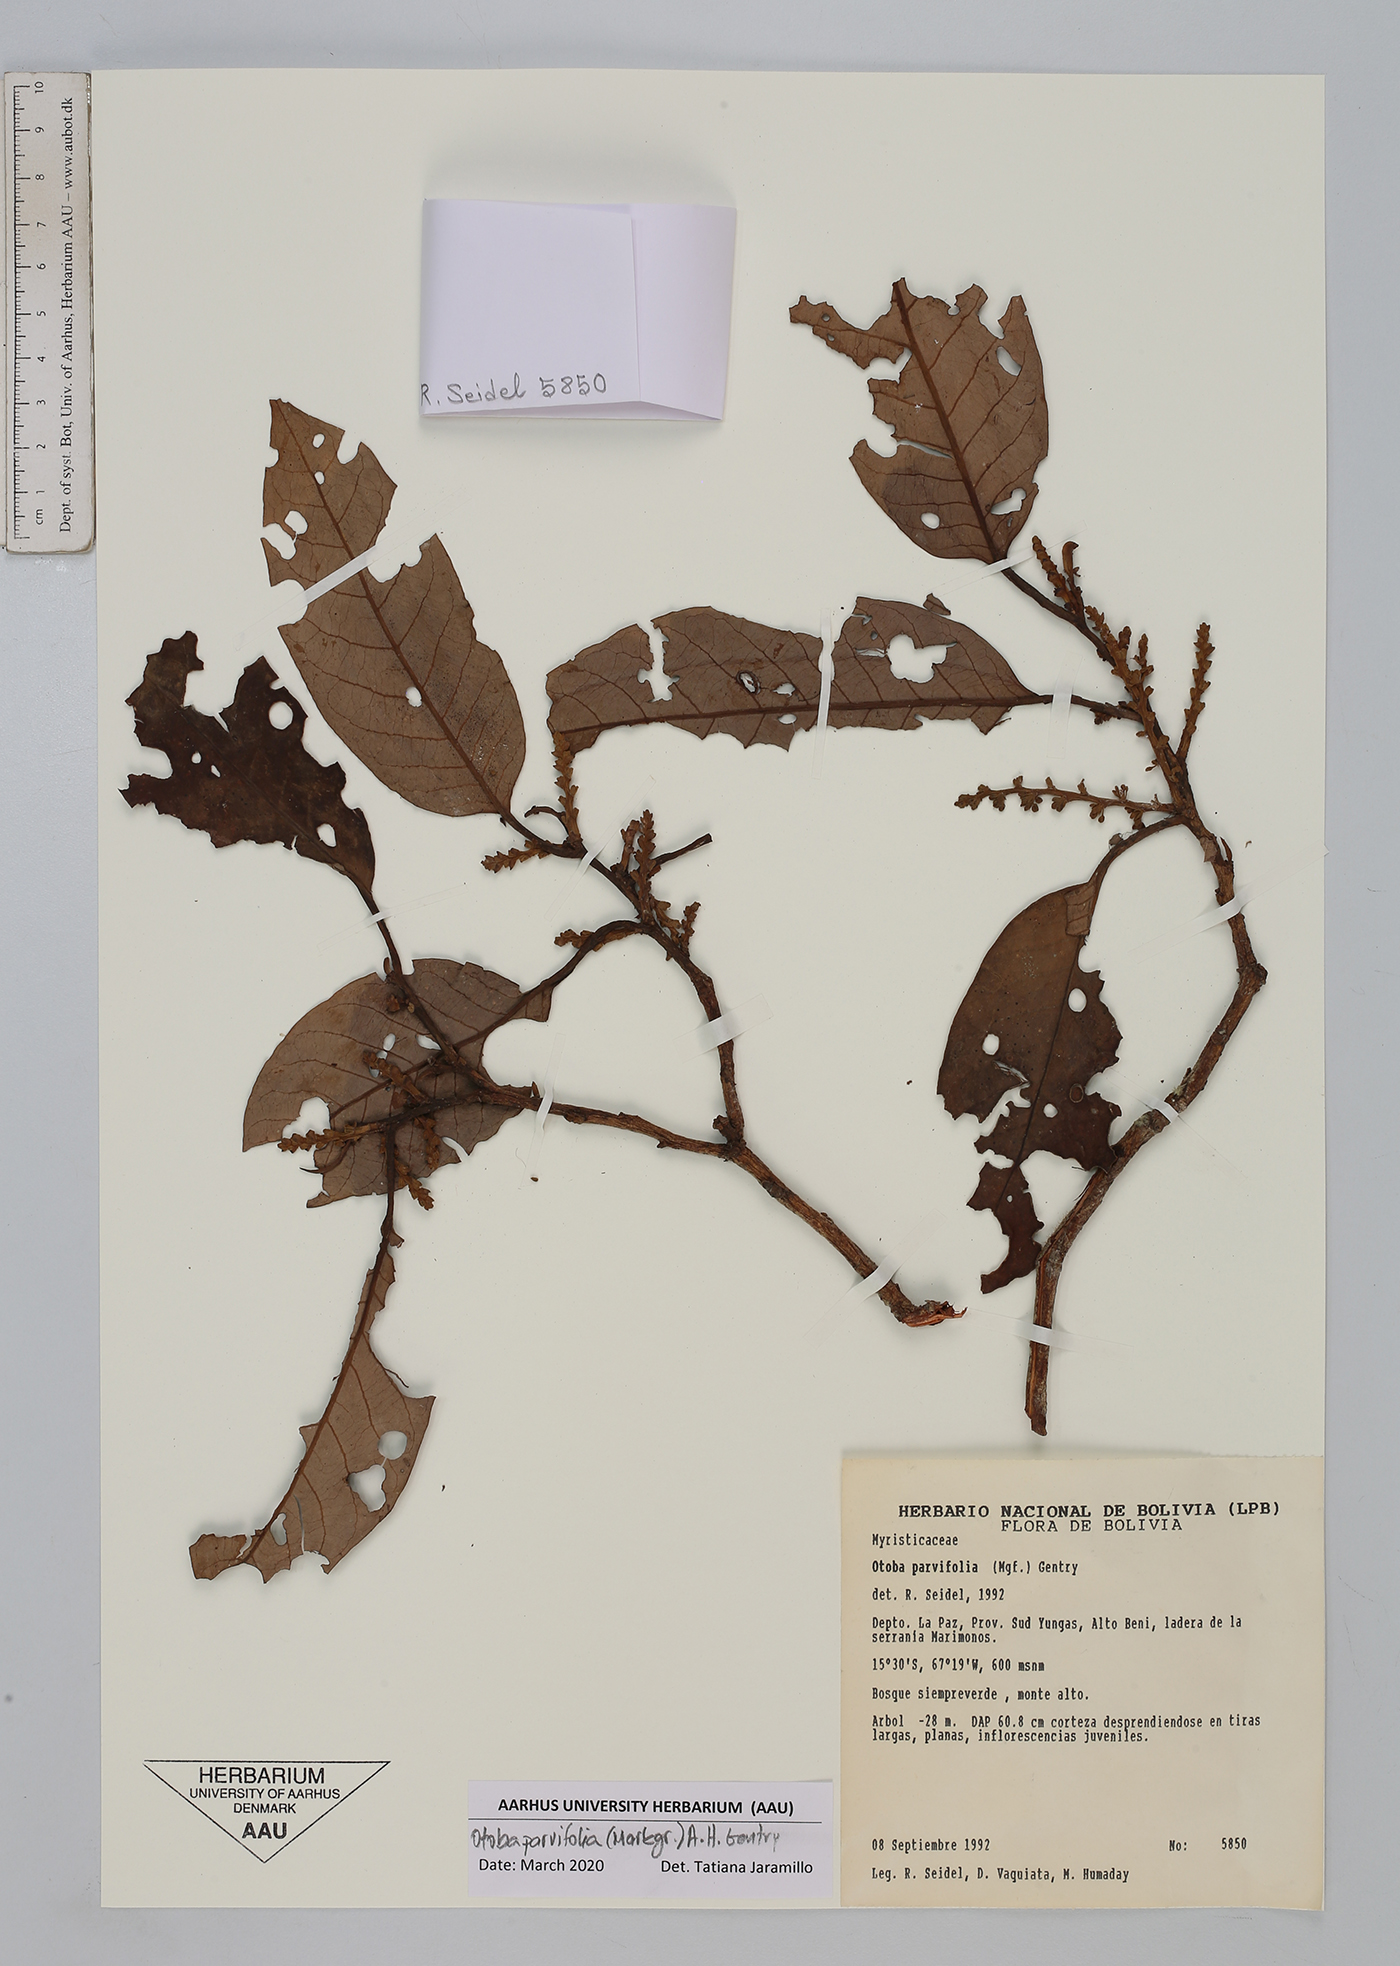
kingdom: Plantae
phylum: Tracheophyta
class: Magnoliopsida
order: Magnoliales
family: Myristicaceae
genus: Otoba
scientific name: Otoba parvifolia
